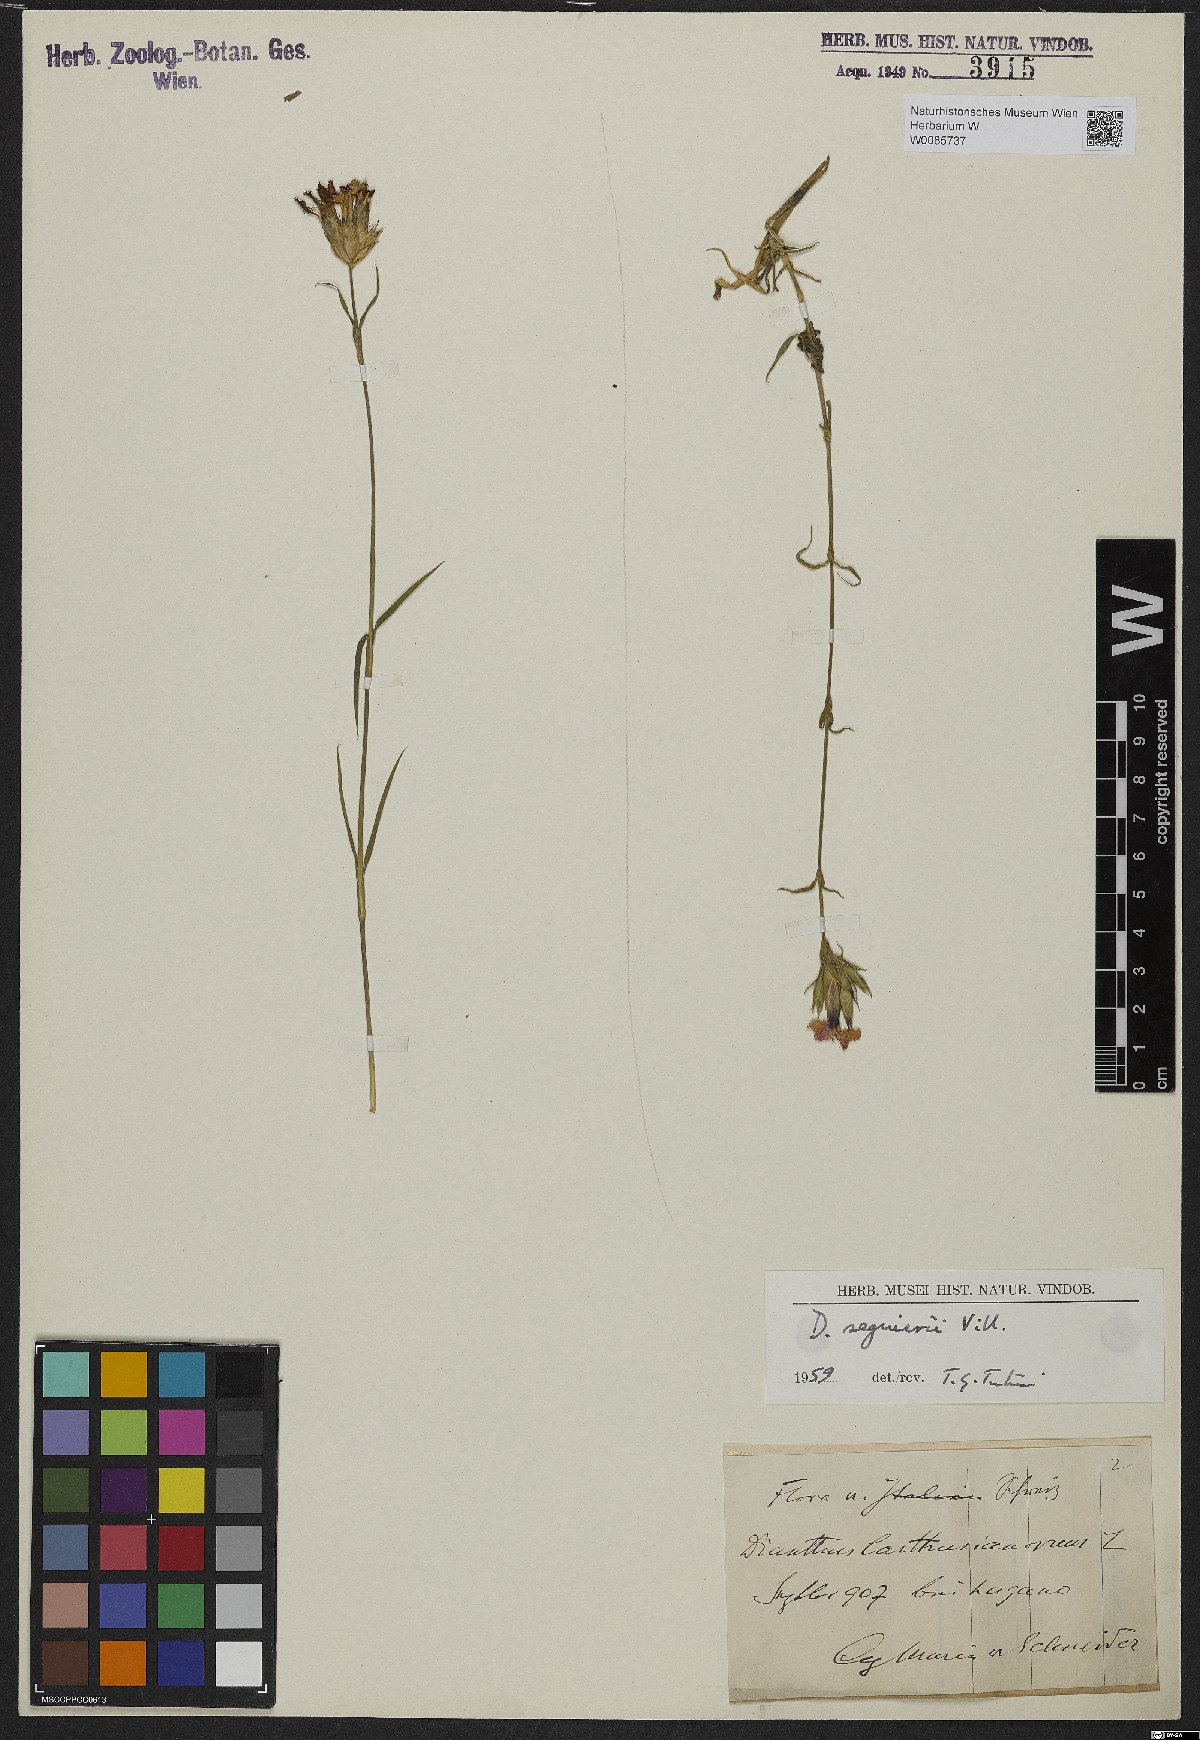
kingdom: Plantae
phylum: Tracheophyta
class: Magnoliopsida
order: Caryophyllales
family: Caryophyllaceae
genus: Dianthus
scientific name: Dianthus seguieri
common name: Ragged pink
